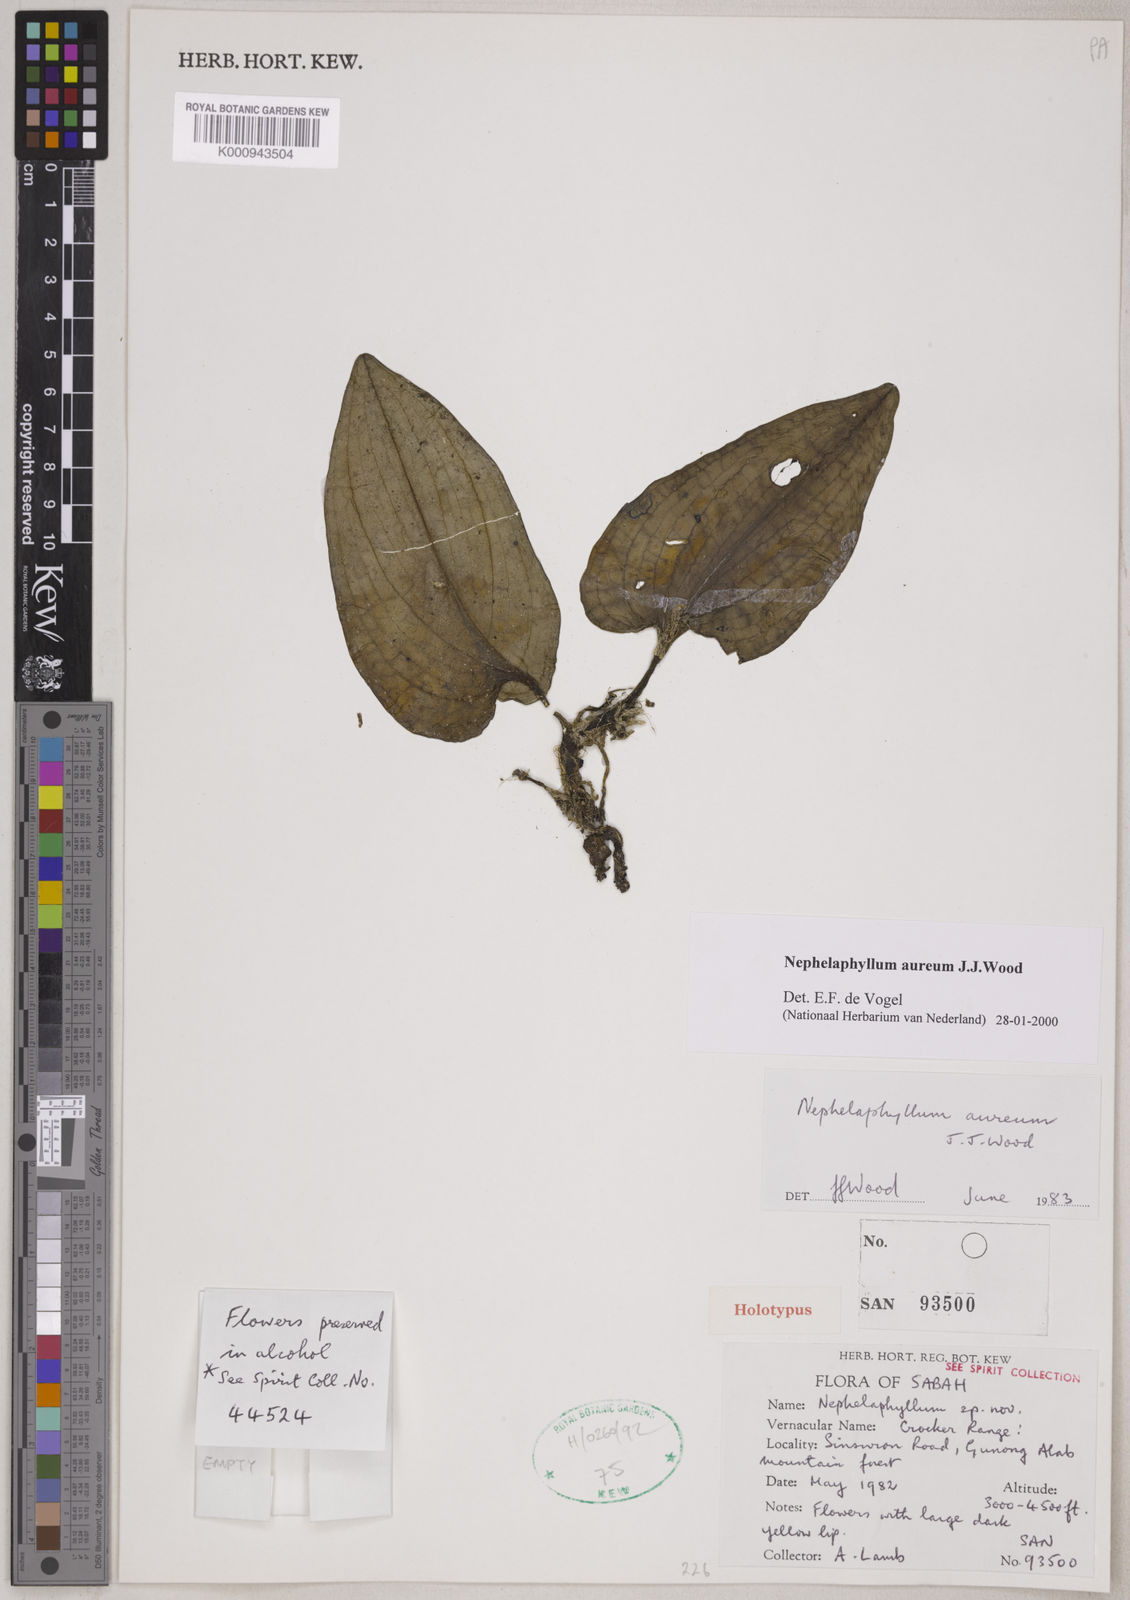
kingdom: Plantae
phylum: Tracheophyta
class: Liliopsida
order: Asparagales
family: Orchidaceae
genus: Nephelaphyllum
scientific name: Nephelaphyllum aureum
